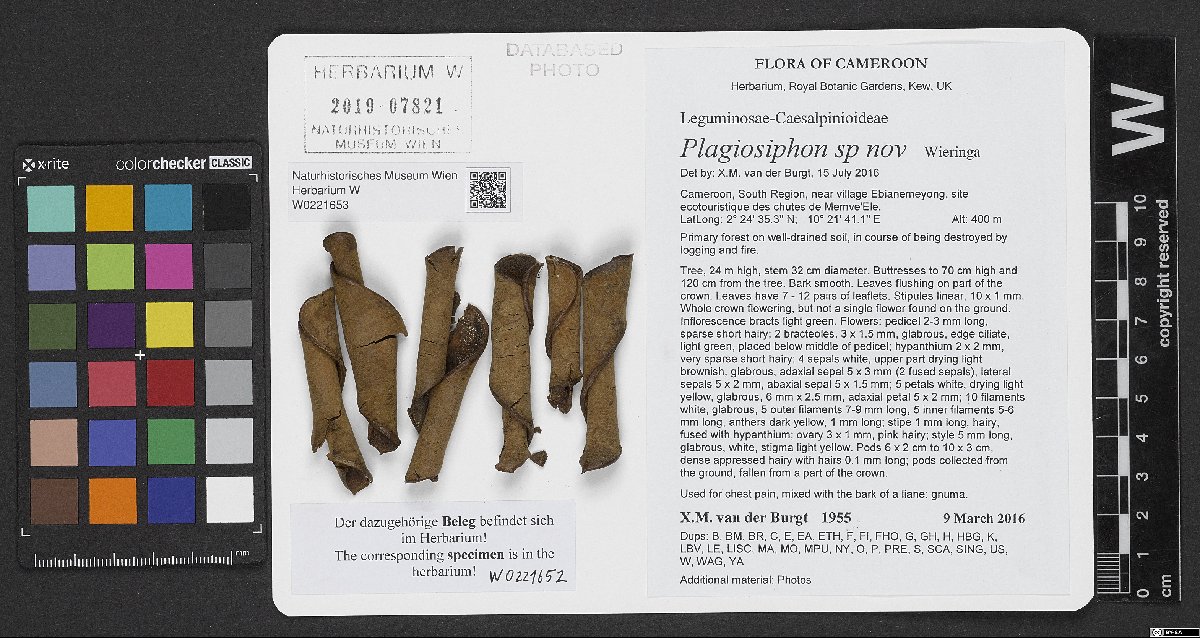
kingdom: Plantae
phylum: Tracheophyta
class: Magnoliopsida
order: Fabales
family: Fabaceae
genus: Plagiosiphon
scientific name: Plagiosiphon
